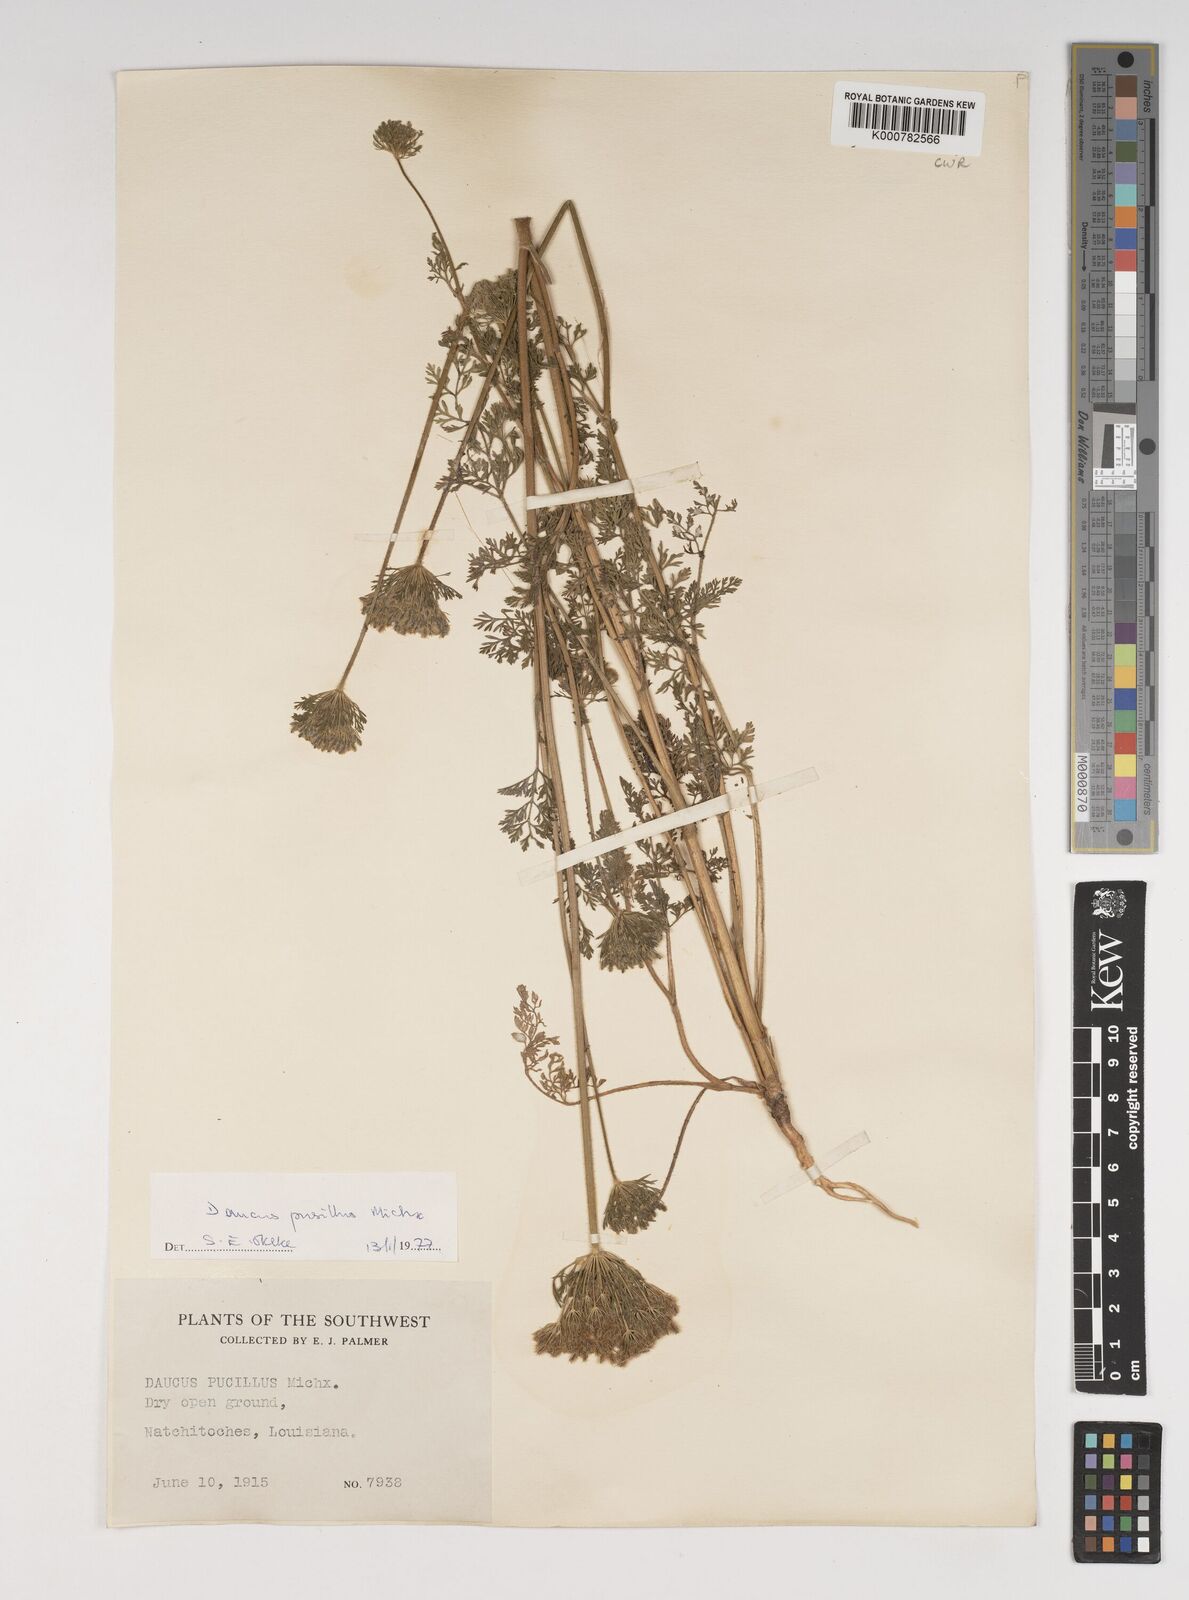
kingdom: Plantae
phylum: Tracheophyta
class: Magnoliopsida
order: Apiales
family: Apiaceae
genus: Daucus
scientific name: Daucus pusillus
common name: Southwest wild carrot
